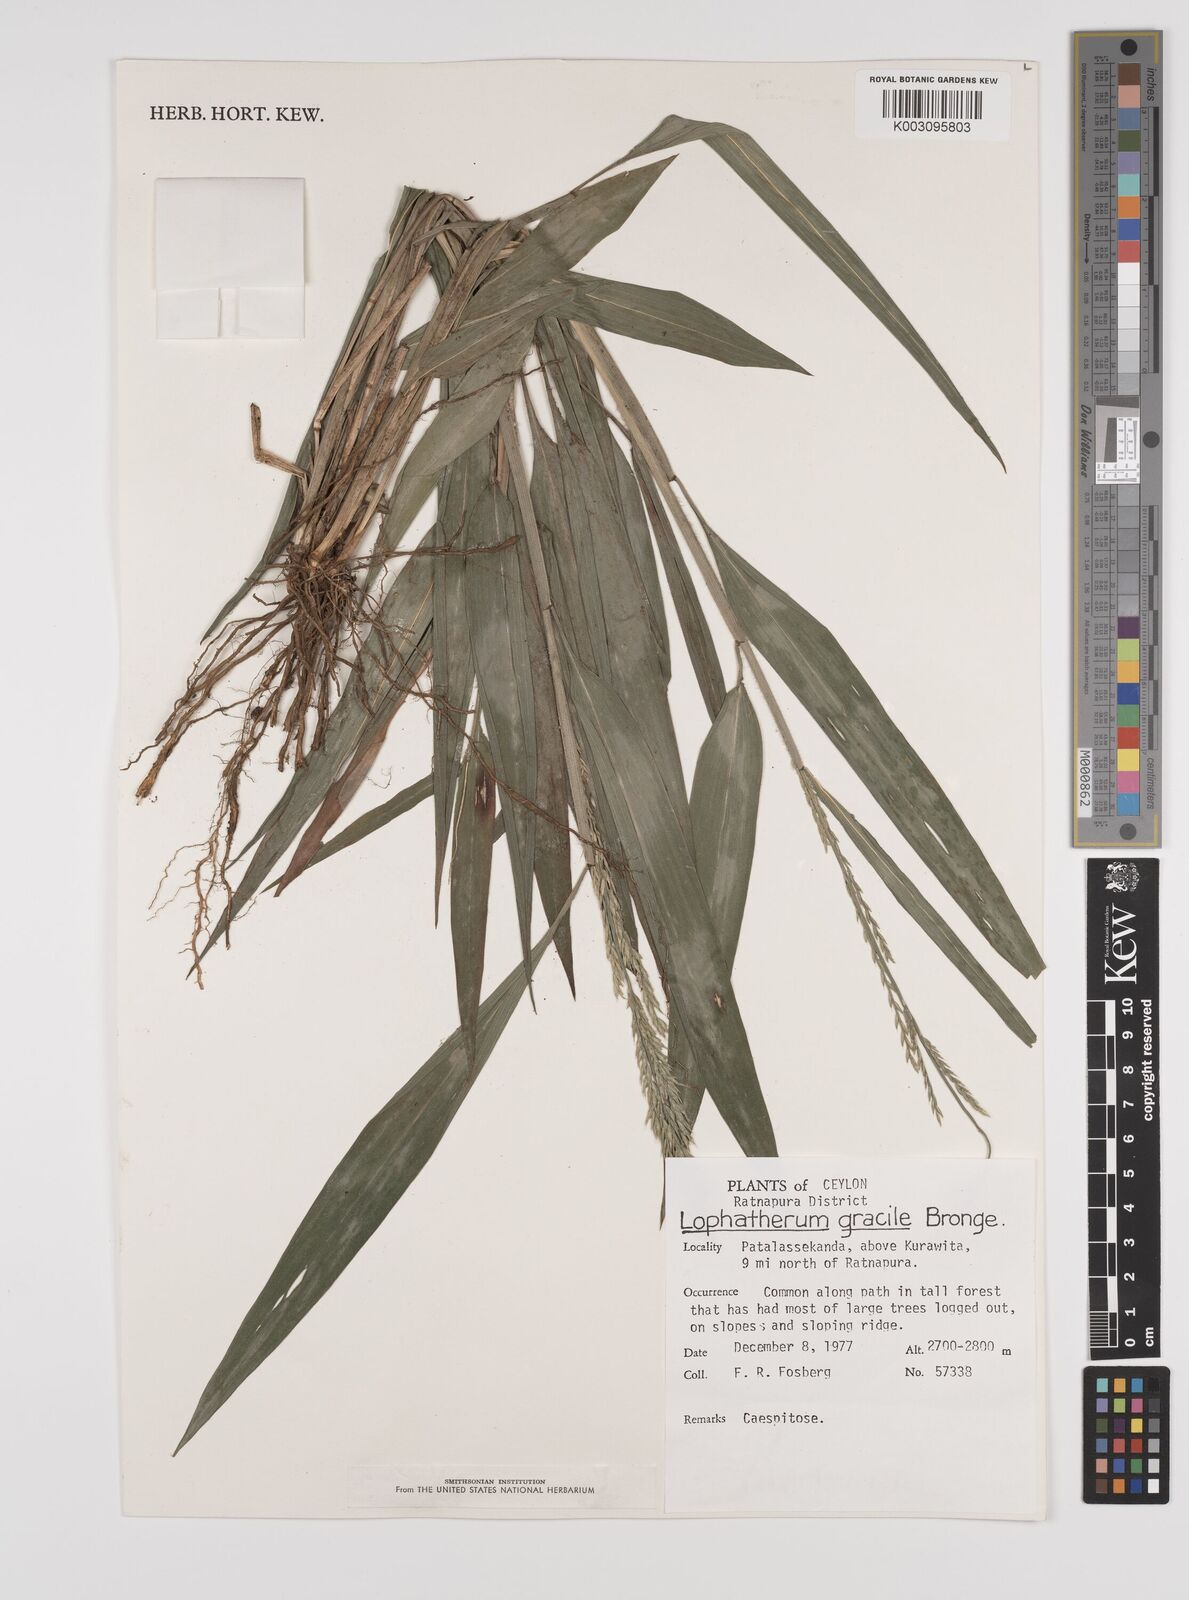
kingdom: Plantae
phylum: Tracheophyta
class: Liliopsida
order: Poales
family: Poaceae
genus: Lophatherum
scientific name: Lophatherum gracile
